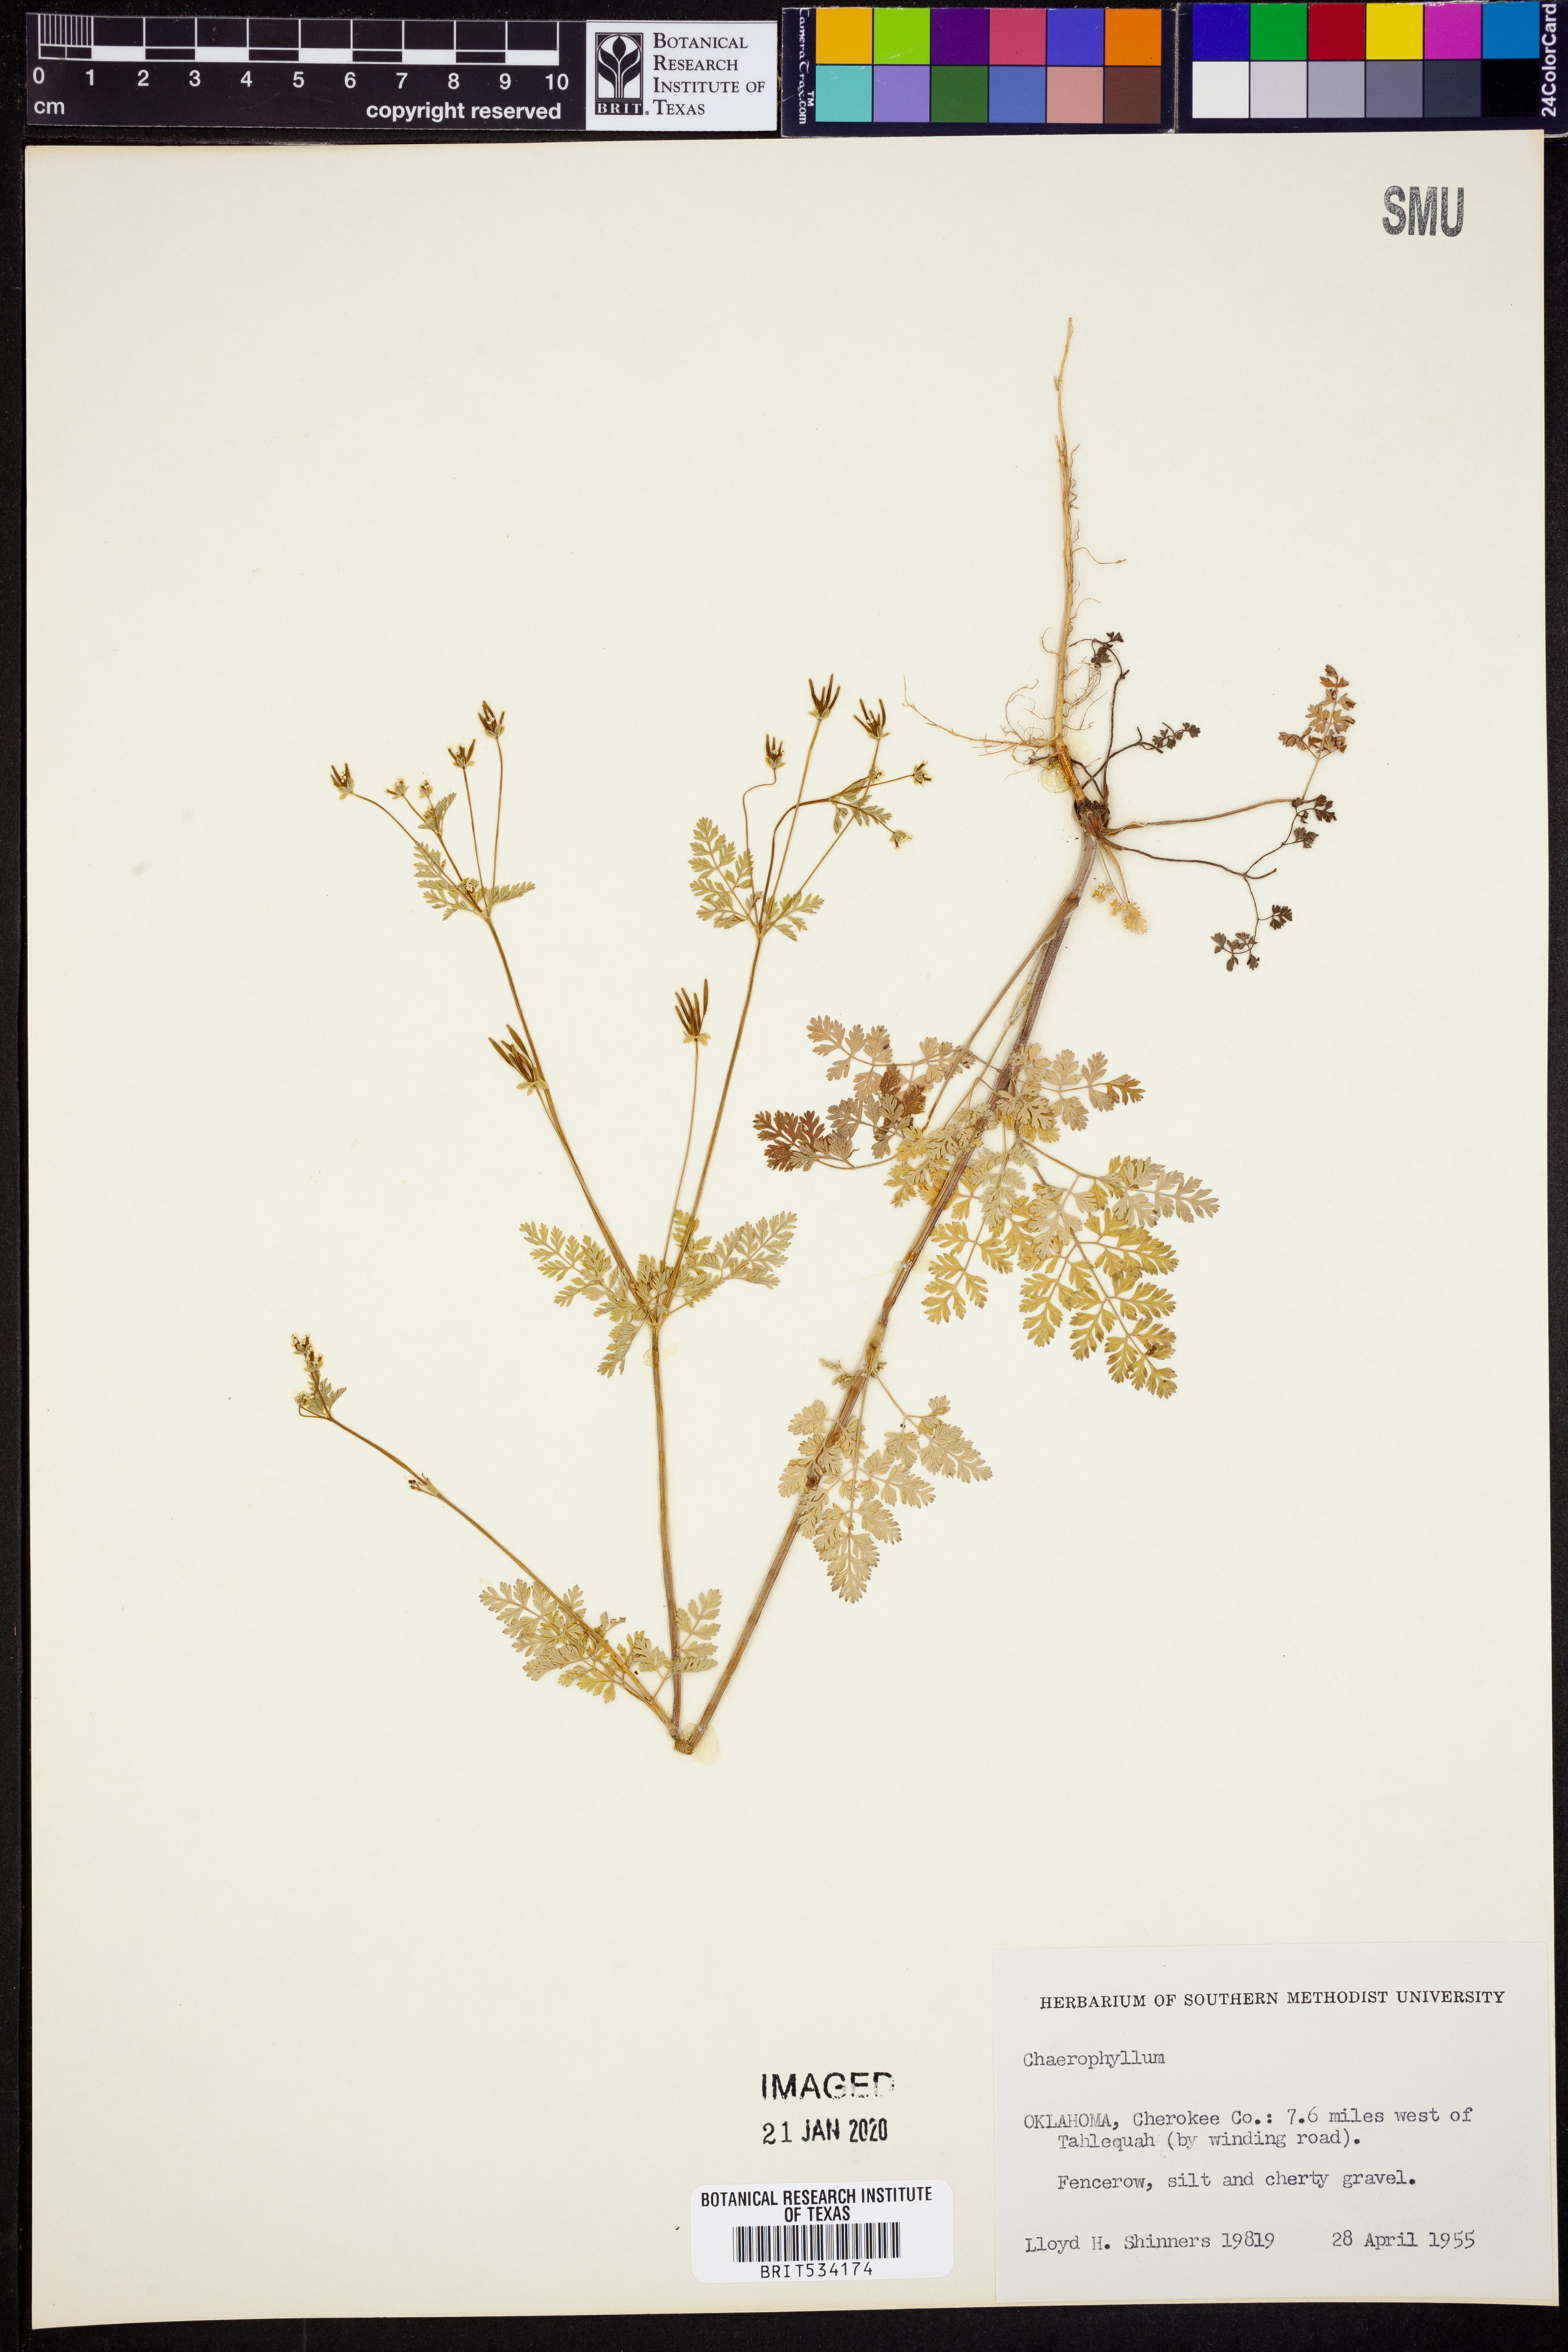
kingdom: Plantae
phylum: Tracheophyta
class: Magnoliopsida
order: Apiales
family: Apiaceae
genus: Chaerophyllum
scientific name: Chaerophyllum
